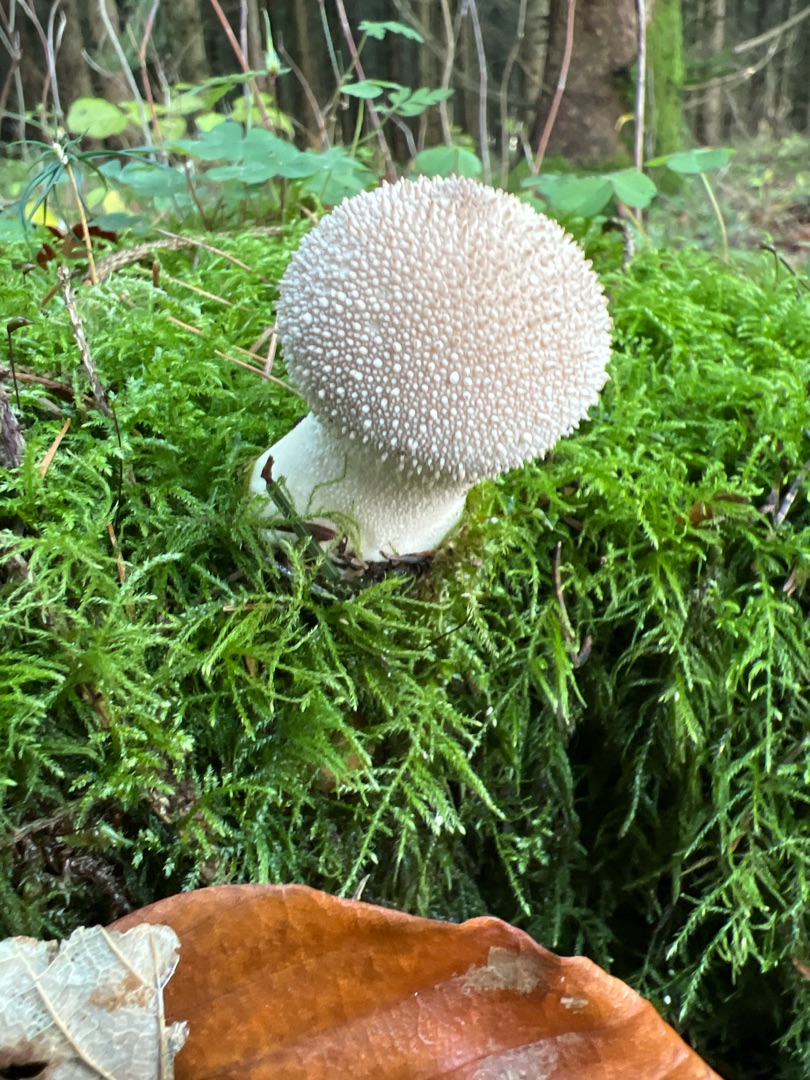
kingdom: Fungi
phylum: Basidiomycota
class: Agaricomycetes
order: Agaricales
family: Lycoperdaceae
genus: Lycoperdon
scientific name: Lycoperdon perlatum
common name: Krystal-støvbold
